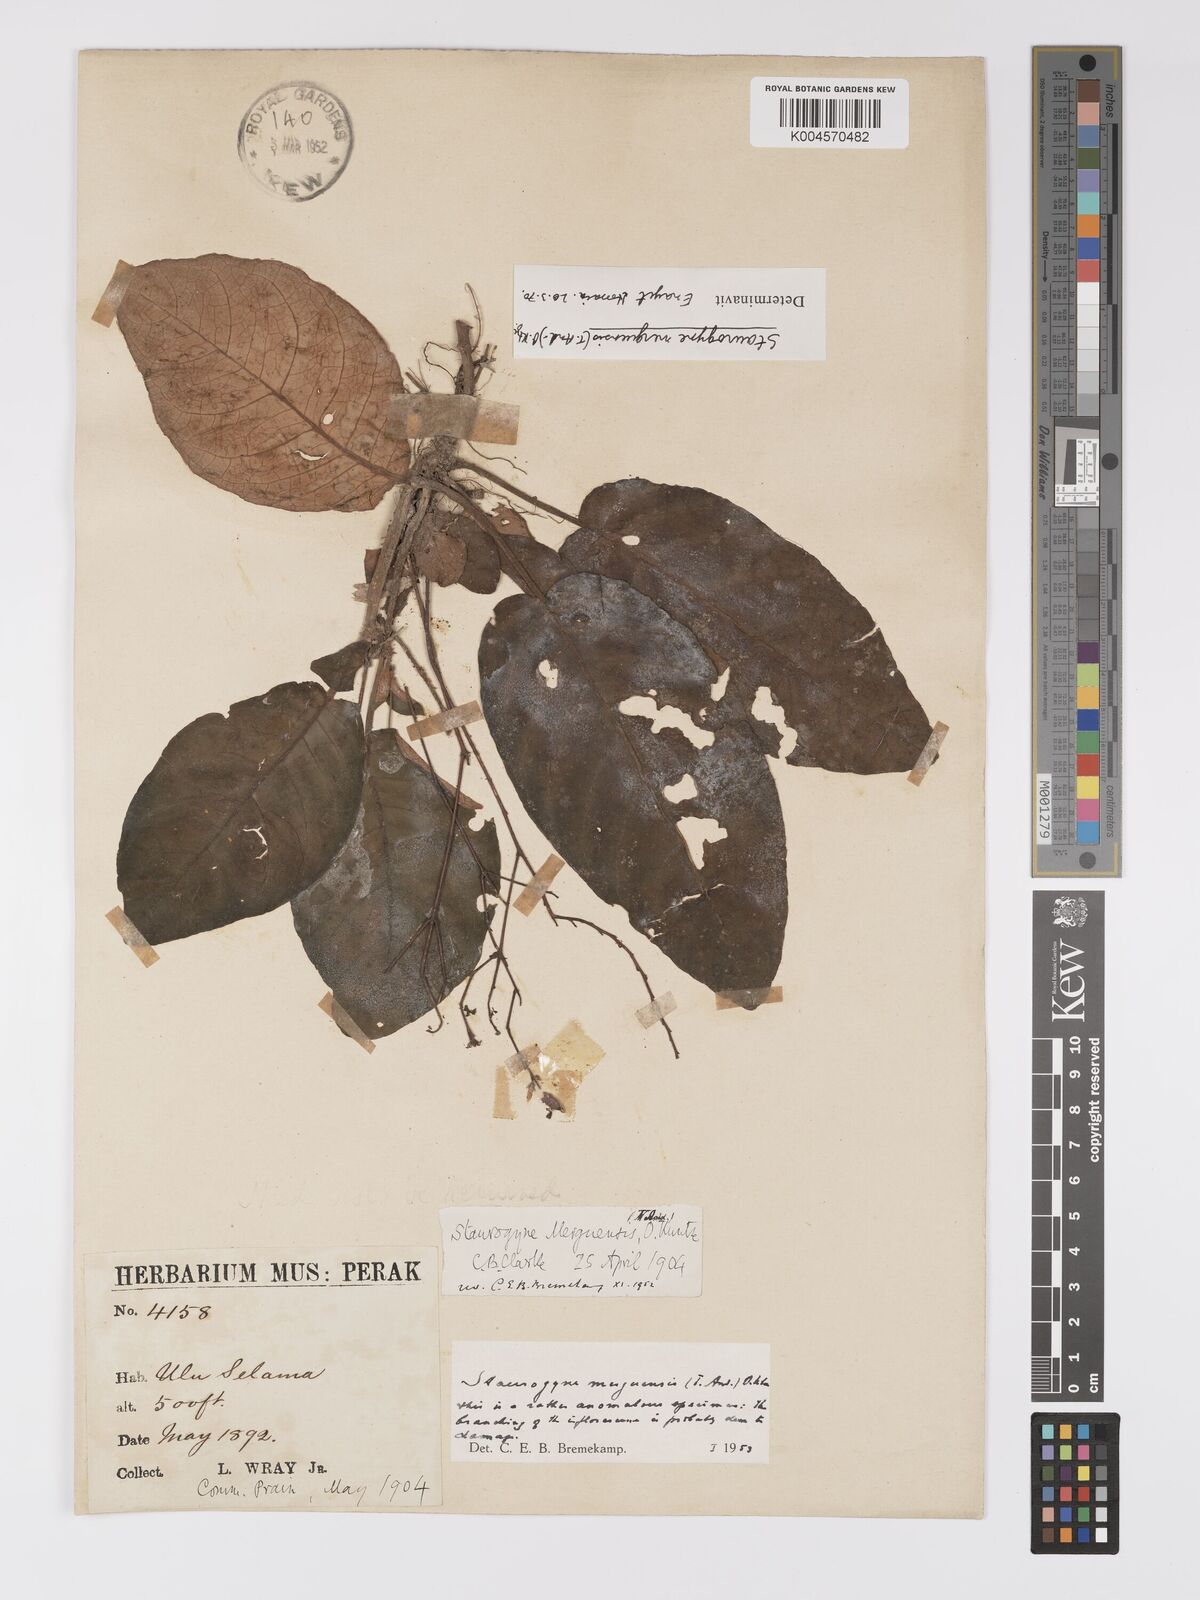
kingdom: Plantae
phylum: Tracheophyta
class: Magnoliopsida
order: Lamiales
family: Acanthaceae
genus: Staurogyne
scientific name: Staurogyne merguensis
